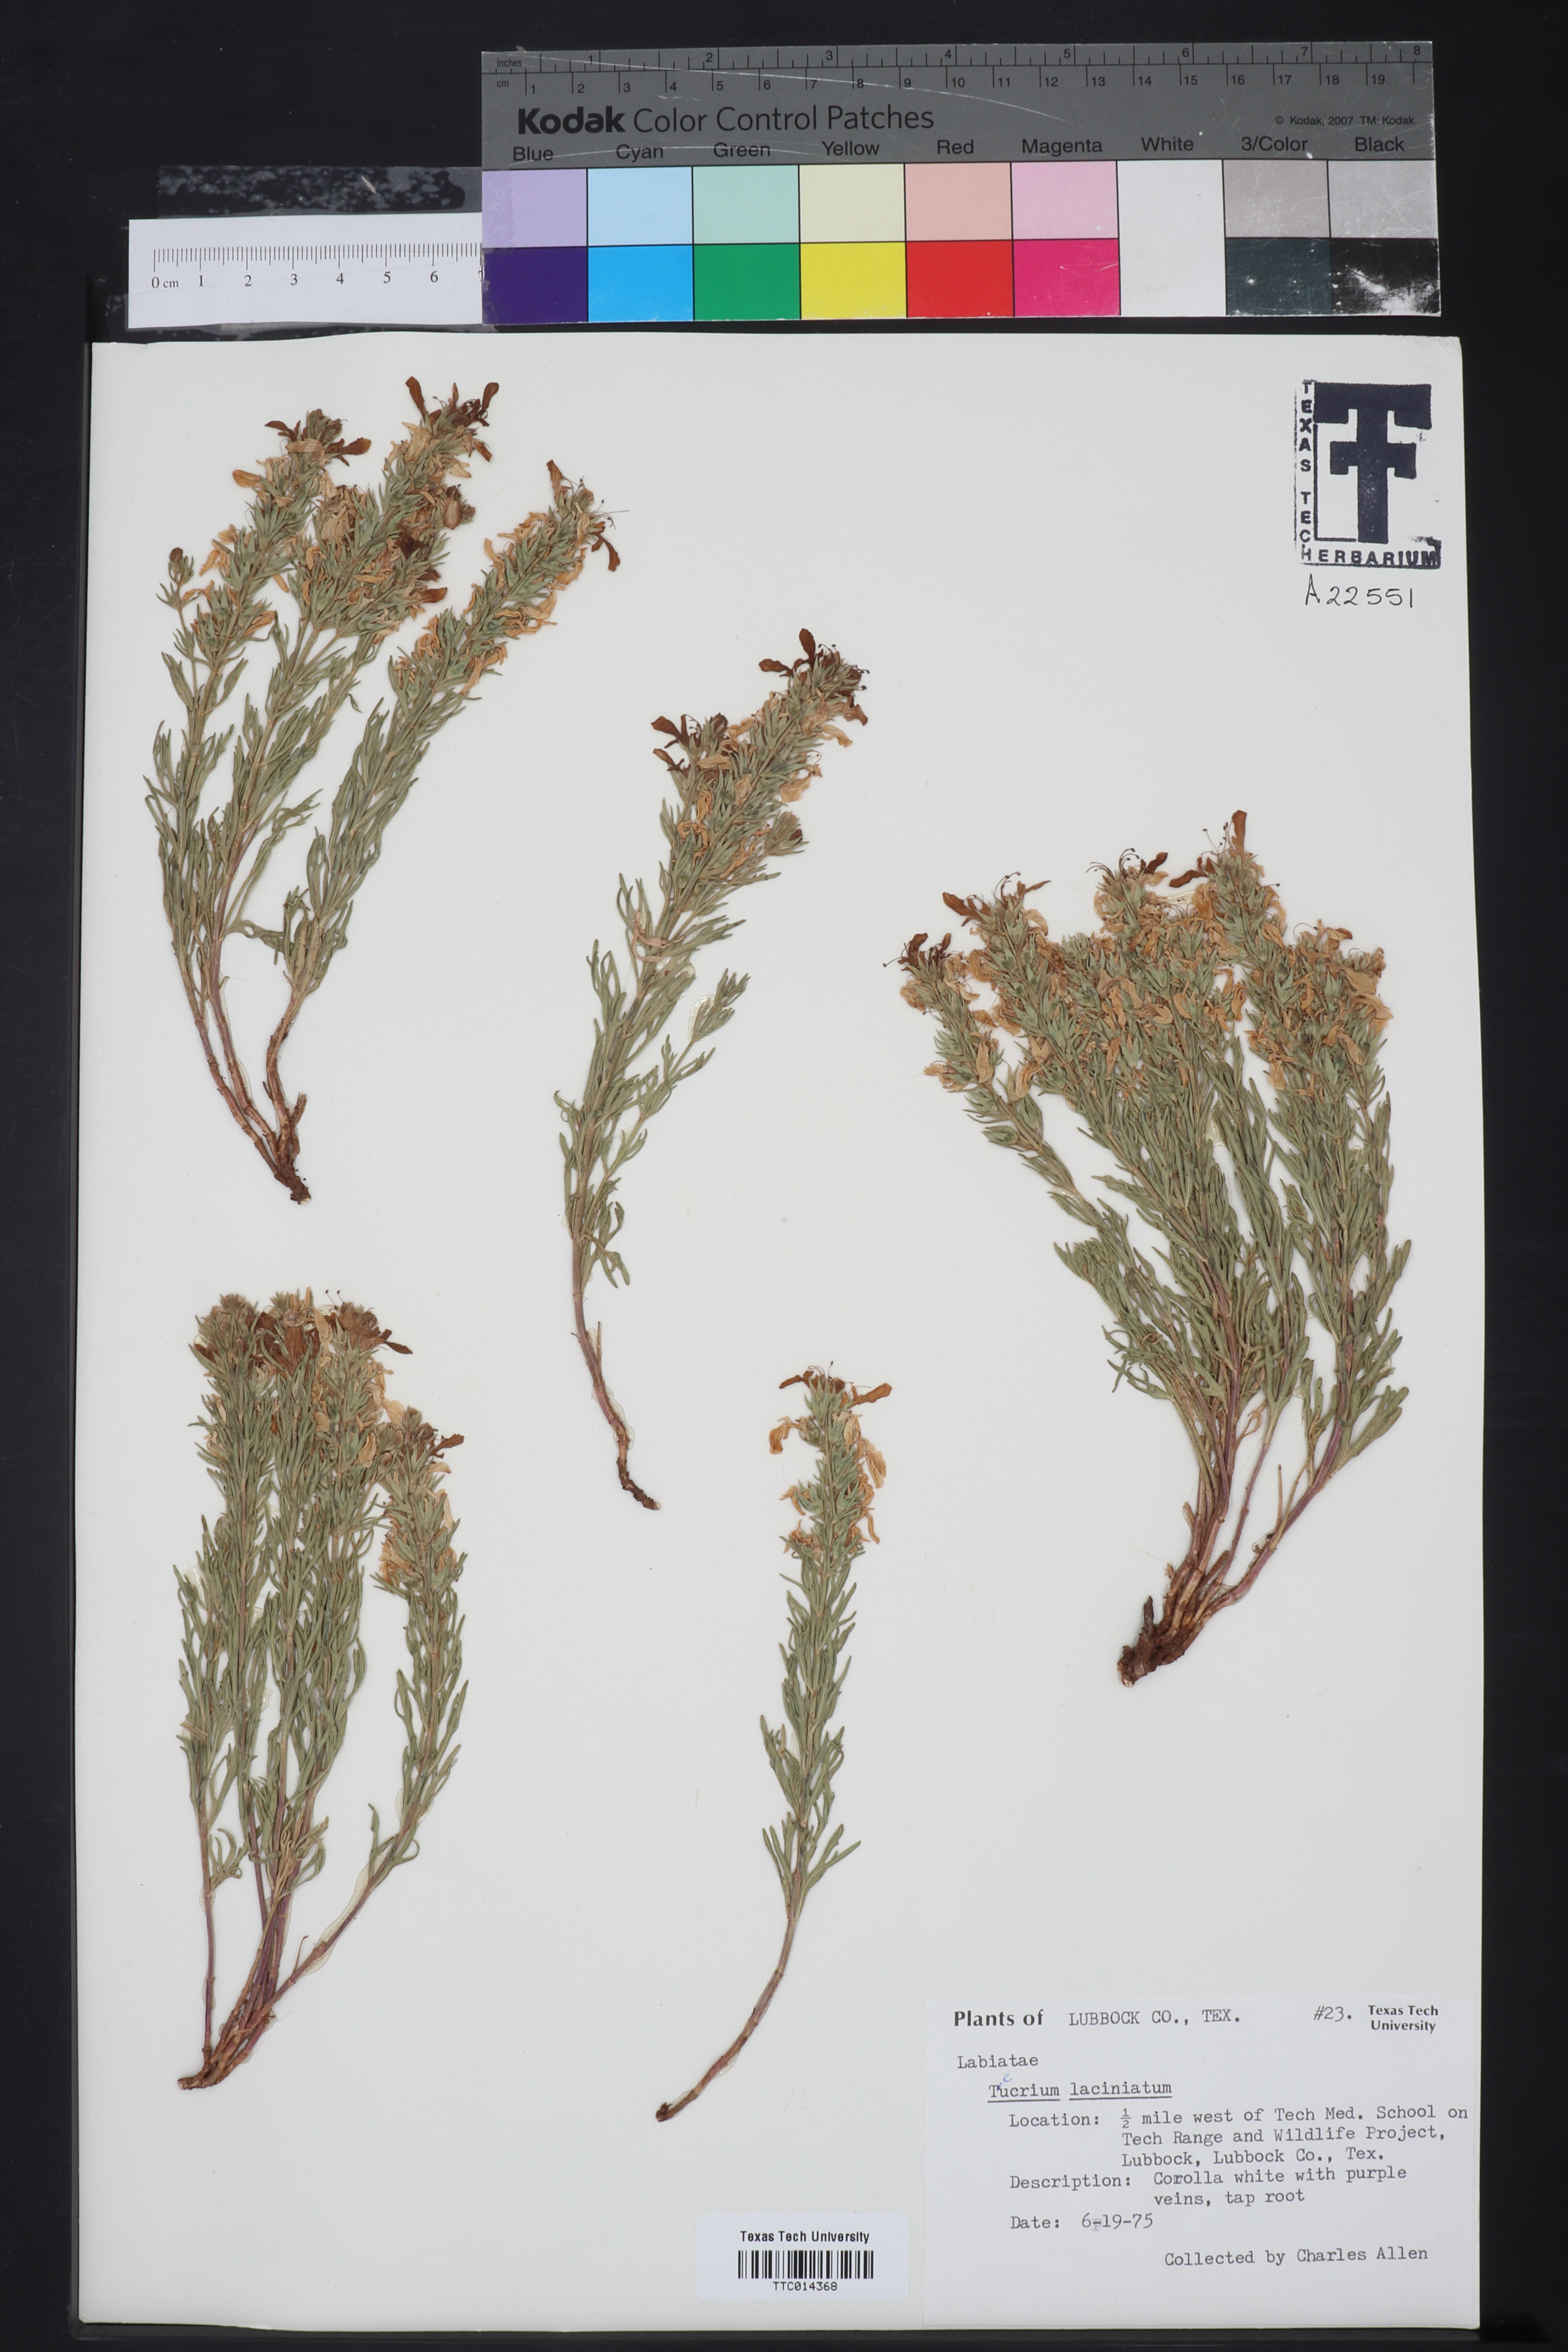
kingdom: Plantae
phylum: Tracheophyta
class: Magnoliopsida
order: Lamiales
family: Lamiaceae
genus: Teucrium
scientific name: Teucrium laciniatum
